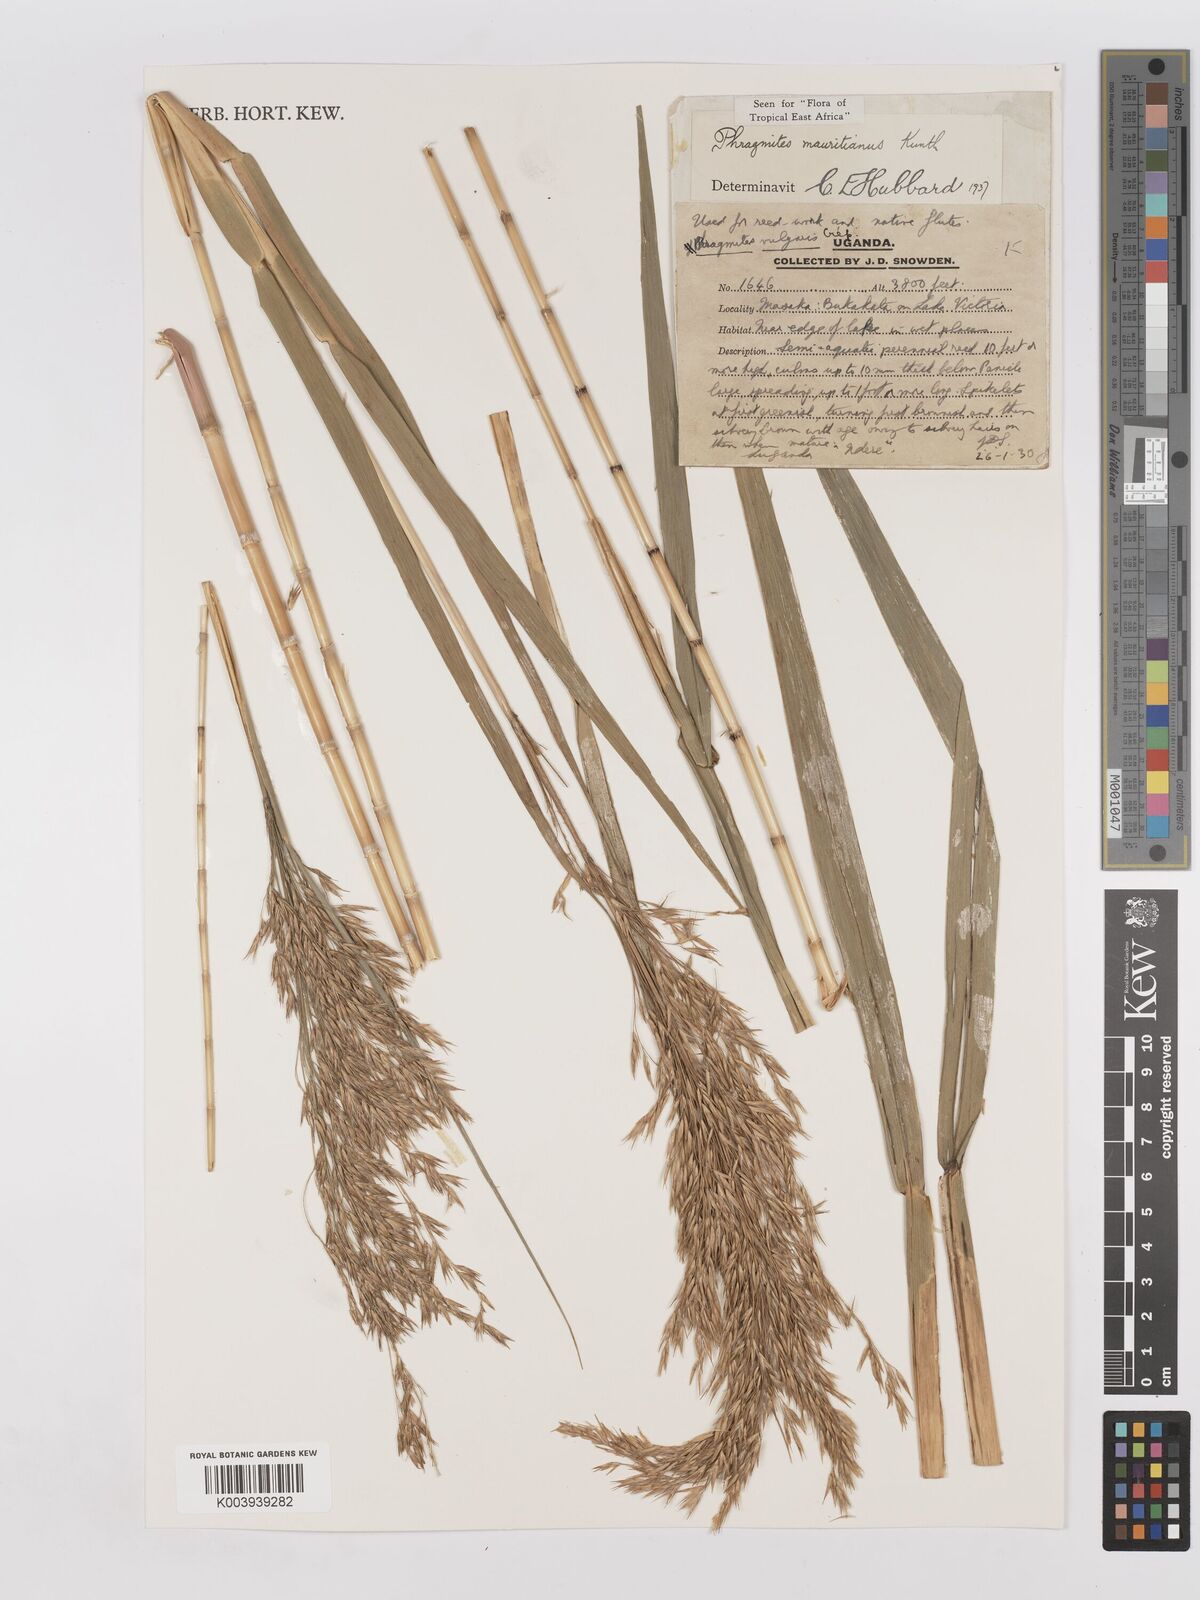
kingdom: Plantae
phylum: Tracheophyta
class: Liliopsida
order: Poales
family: Poaceae
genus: Phragmites
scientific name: Phragmites mauritianus
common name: Reed grass
